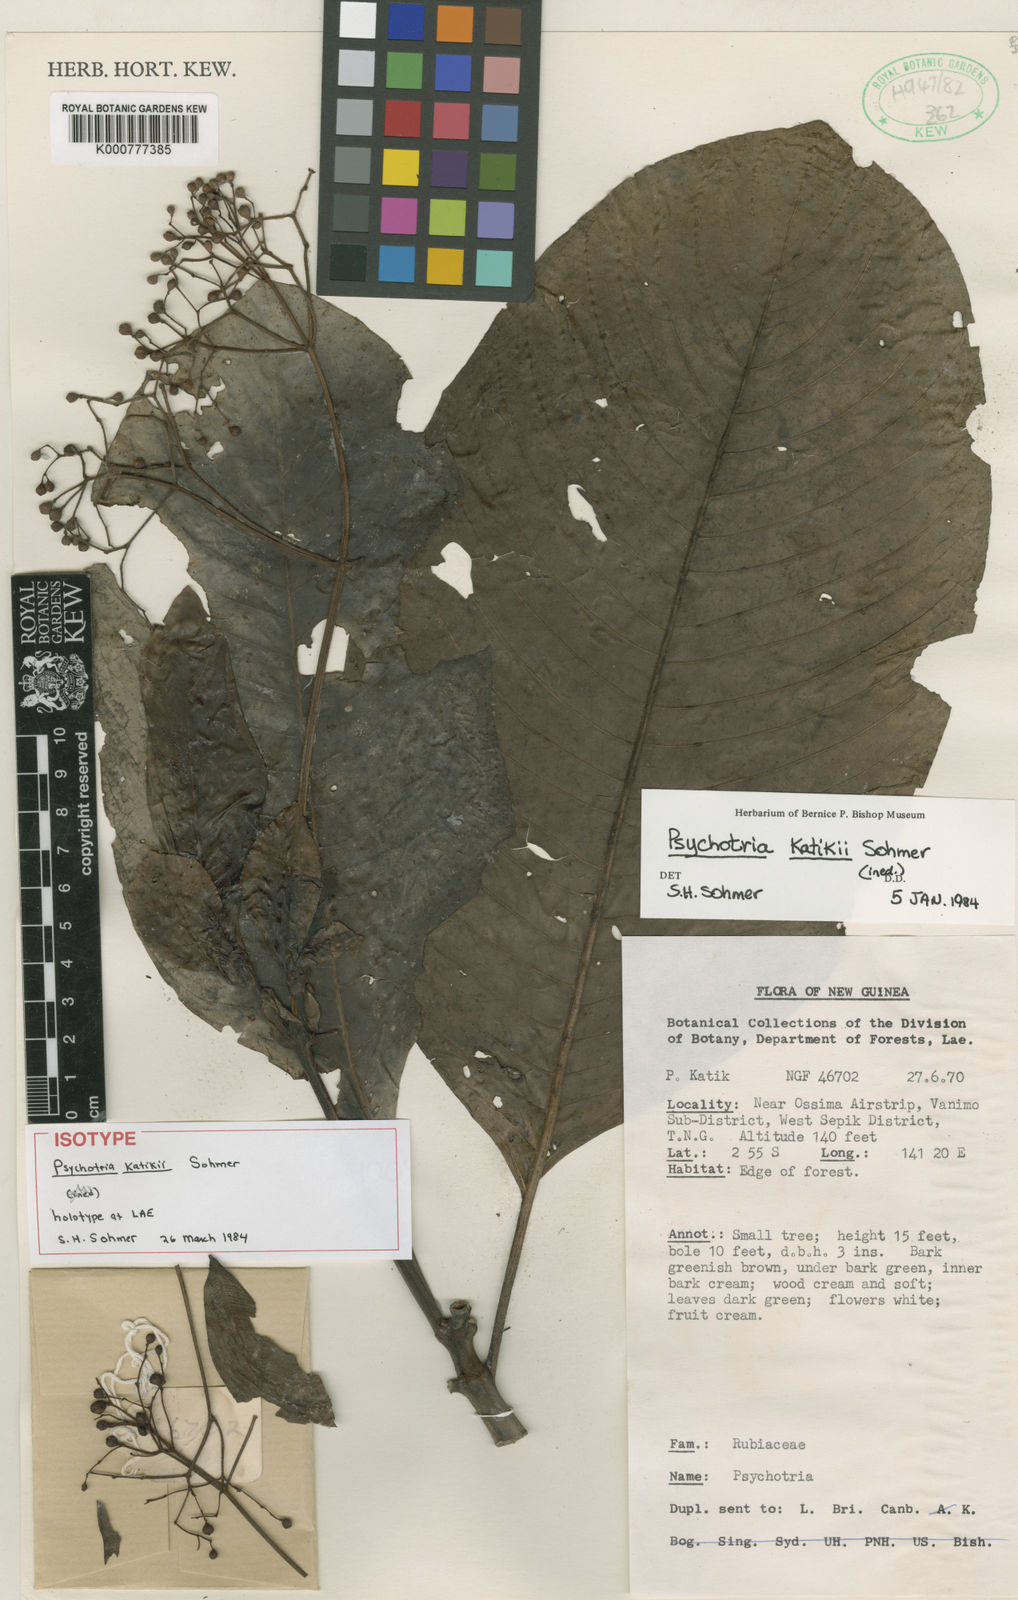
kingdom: Plantae
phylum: Tracheophyta
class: Magnoliopsida
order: Gentianales
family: Rubiaceae
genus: Psychotria
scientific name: Psychotria katikii
